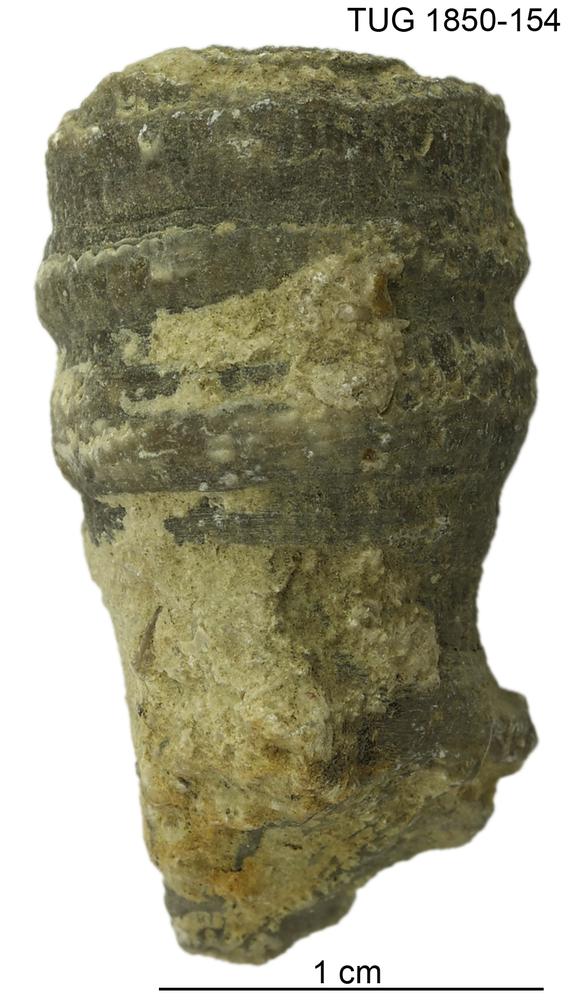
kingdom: Animalia
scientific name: Animalia
